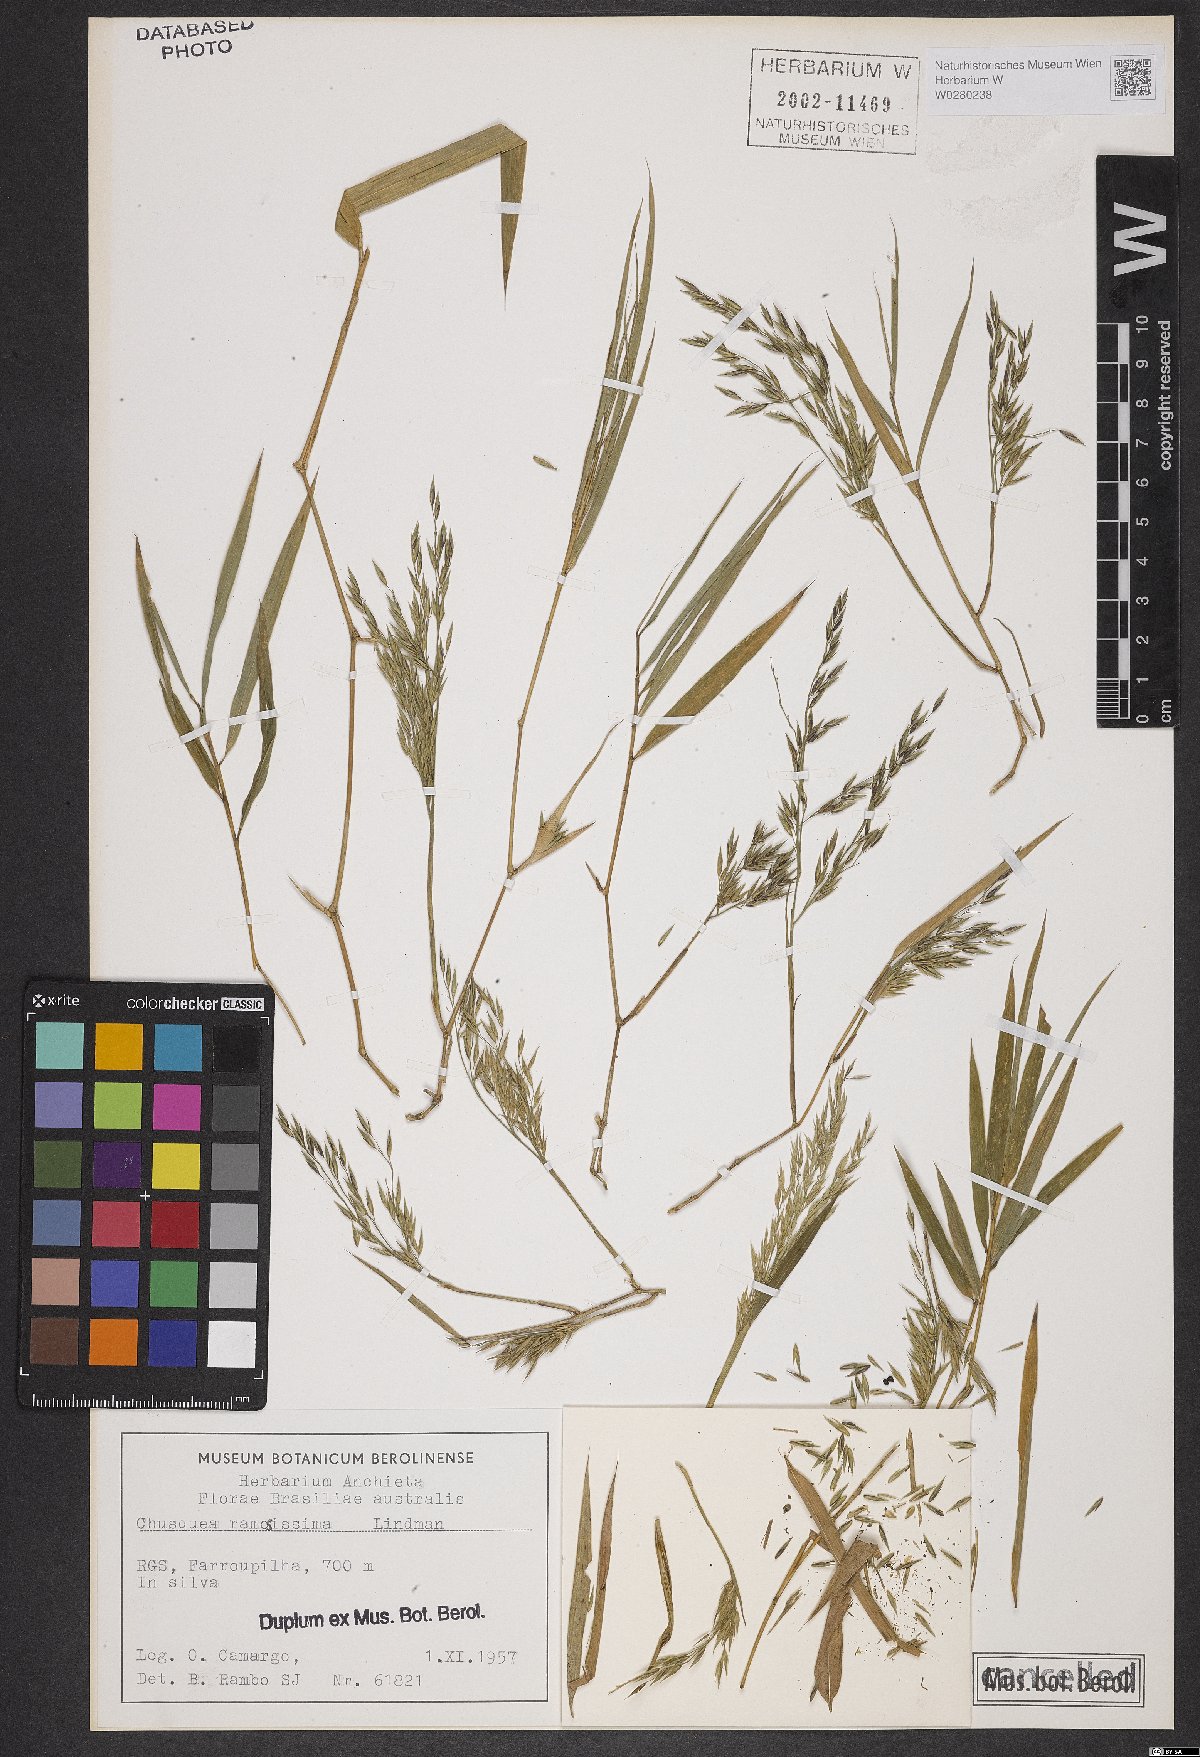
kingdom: Plantae
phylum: Tracheophyta
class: Liliopsida
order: Poales
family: Poaceae
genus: Chusquea
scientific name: Chusquea ramosissima
